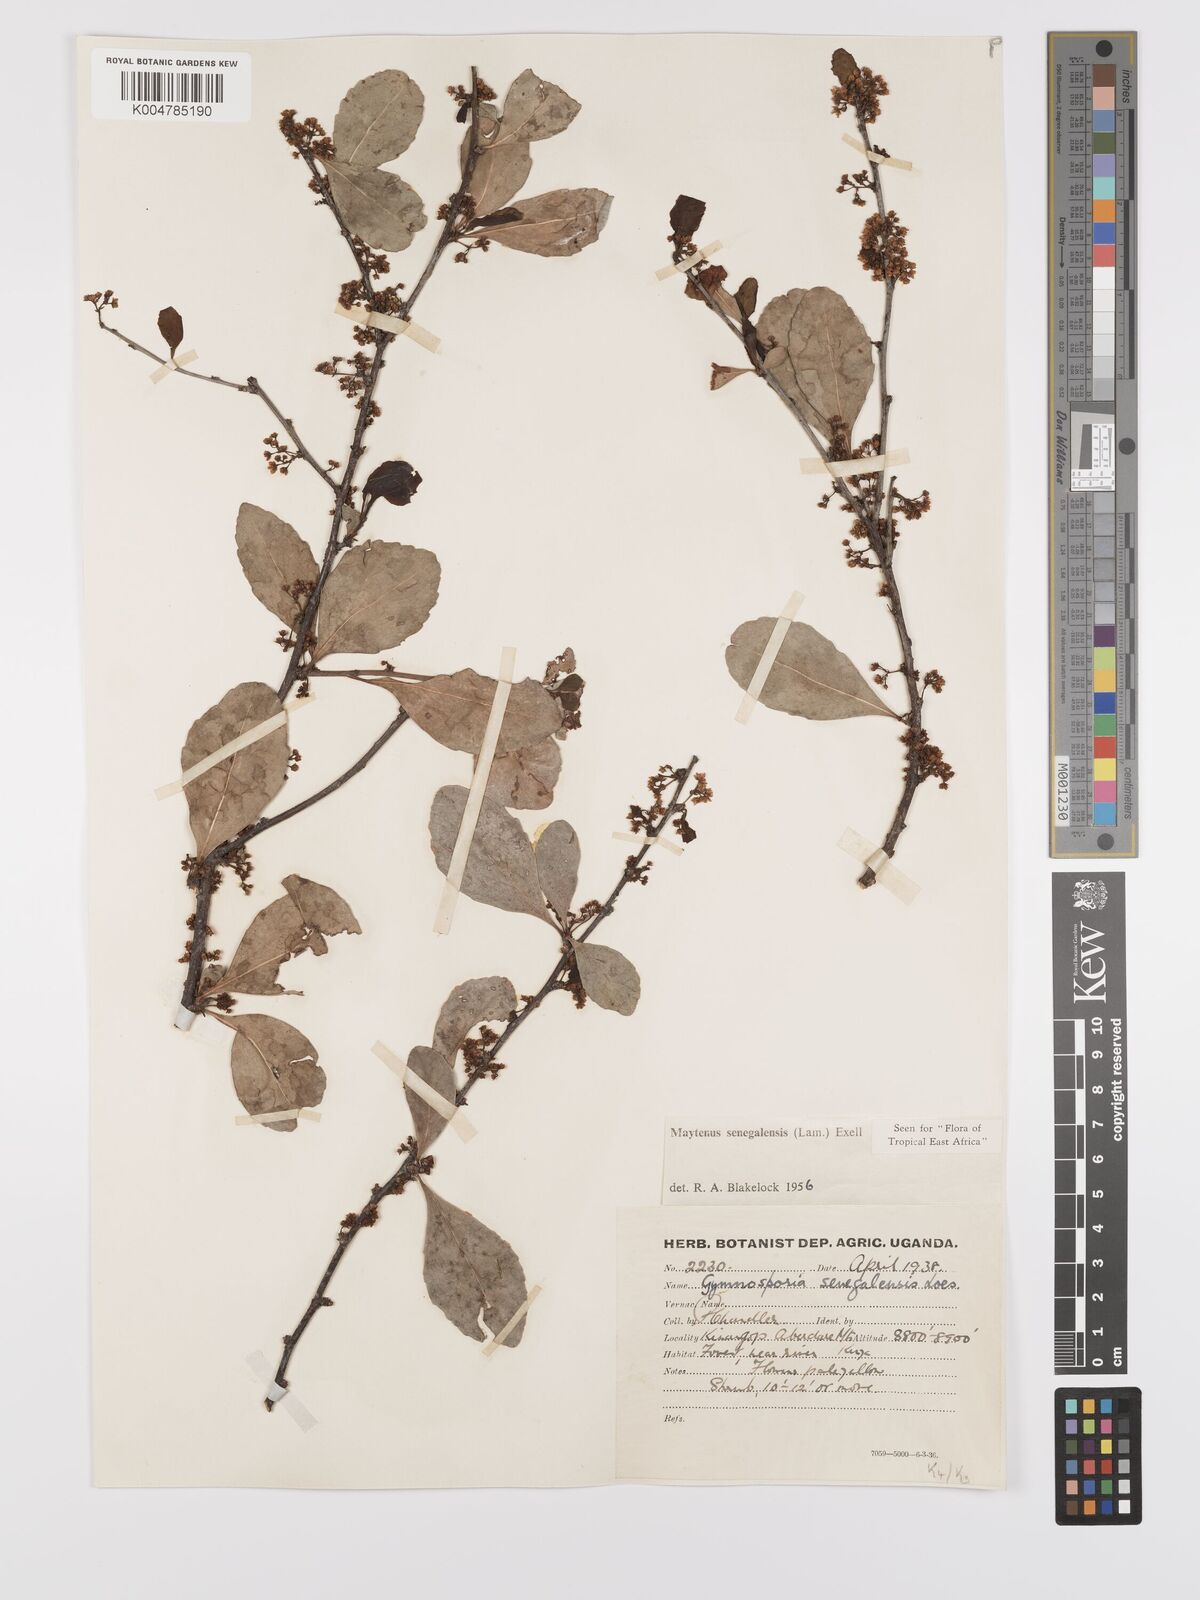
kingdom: Plantae
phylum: Tracheophyta
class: Magnoliopsida
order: Celastrales
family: Celastraceae
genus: Gymnosporia
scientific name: Gymnosporia heterophylla
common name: Angle-stem spikethorn
